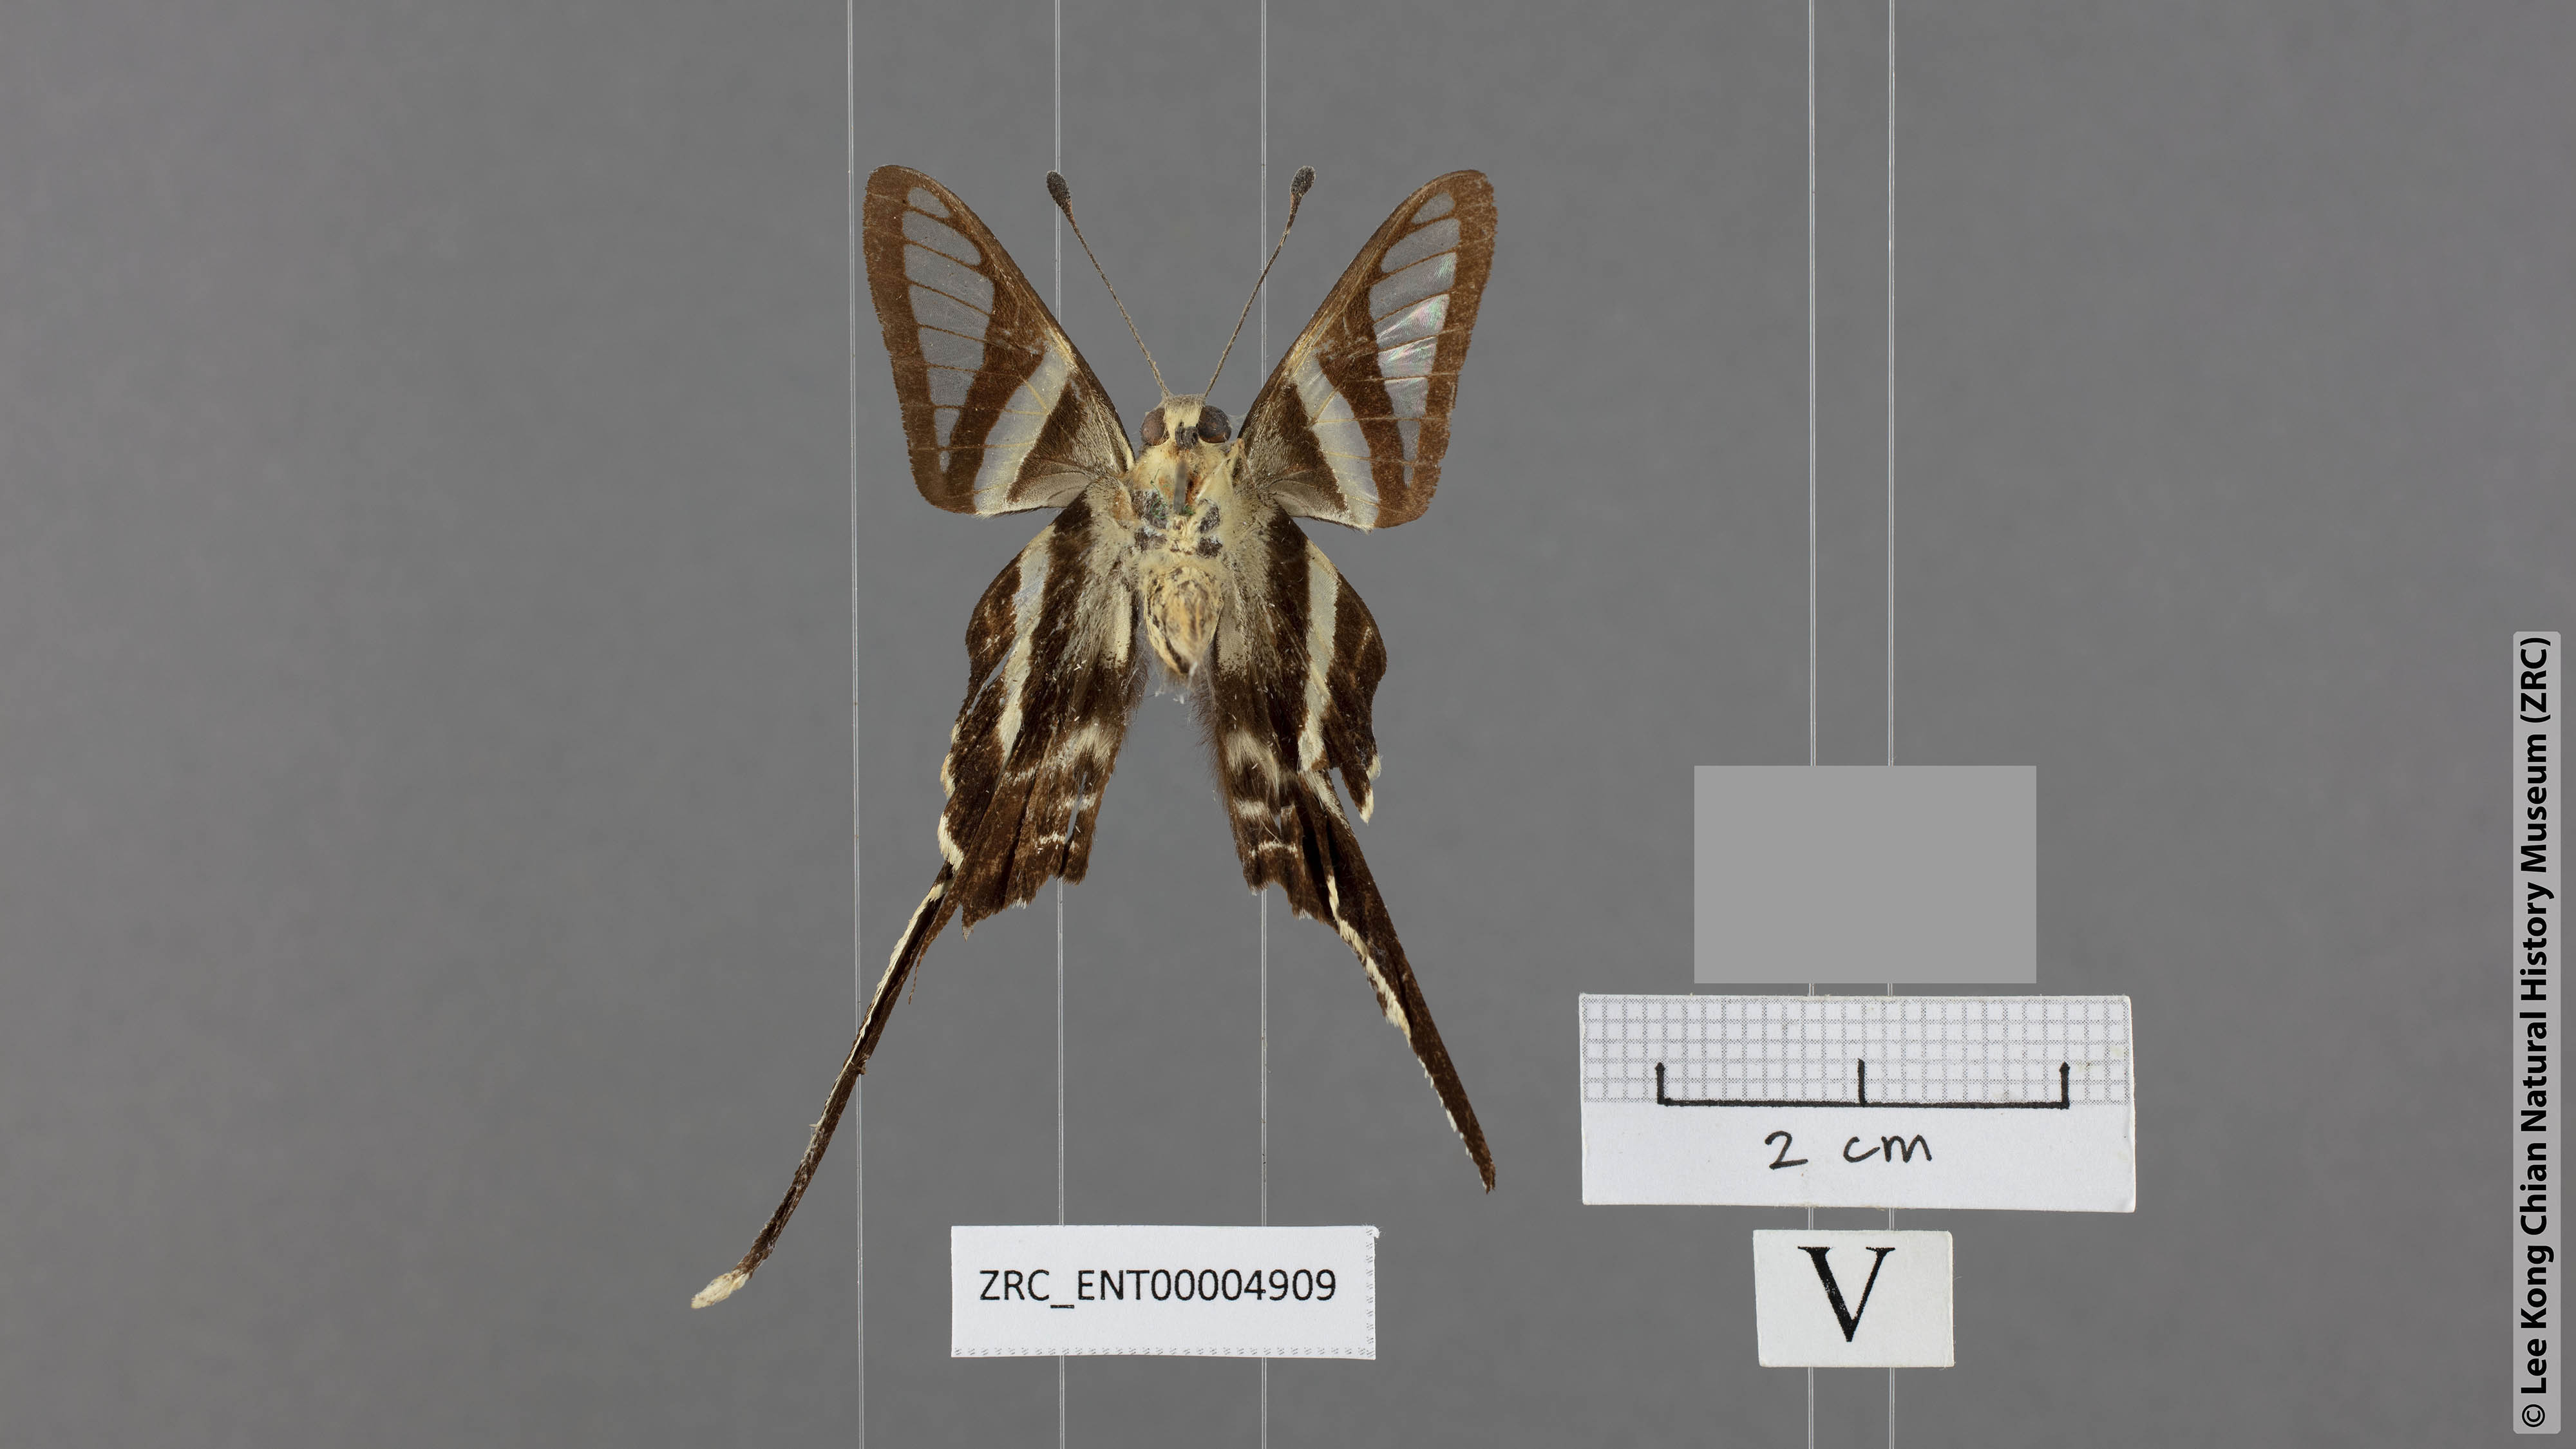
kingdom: Animalia
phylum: Arthropoda
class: Insecta
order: Lepidoptera
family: Papilionidae
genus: Lamproptera
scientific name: Lamproptera curius
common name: White dragontail
